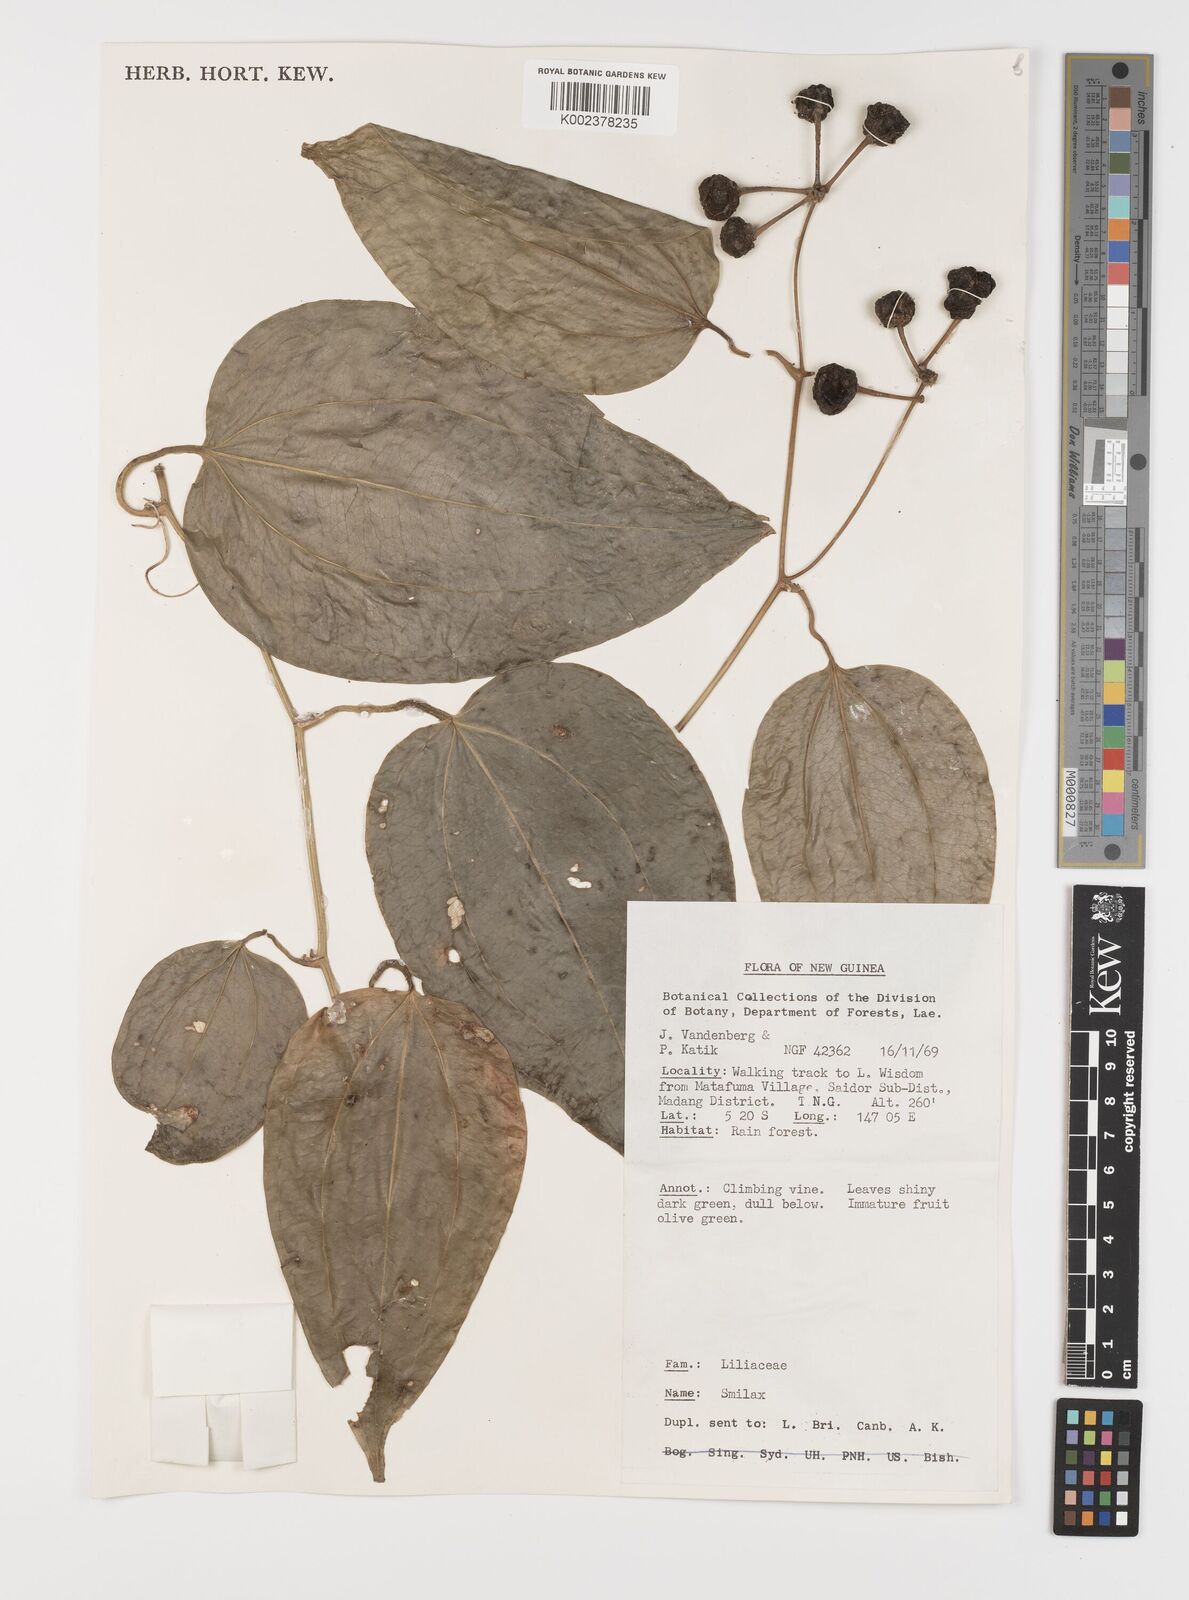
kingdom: Plantae
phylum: Tracheophyta
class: Liliopsida
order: Liliales
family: Smilacaceae
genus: Smilax
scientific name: Smilax
